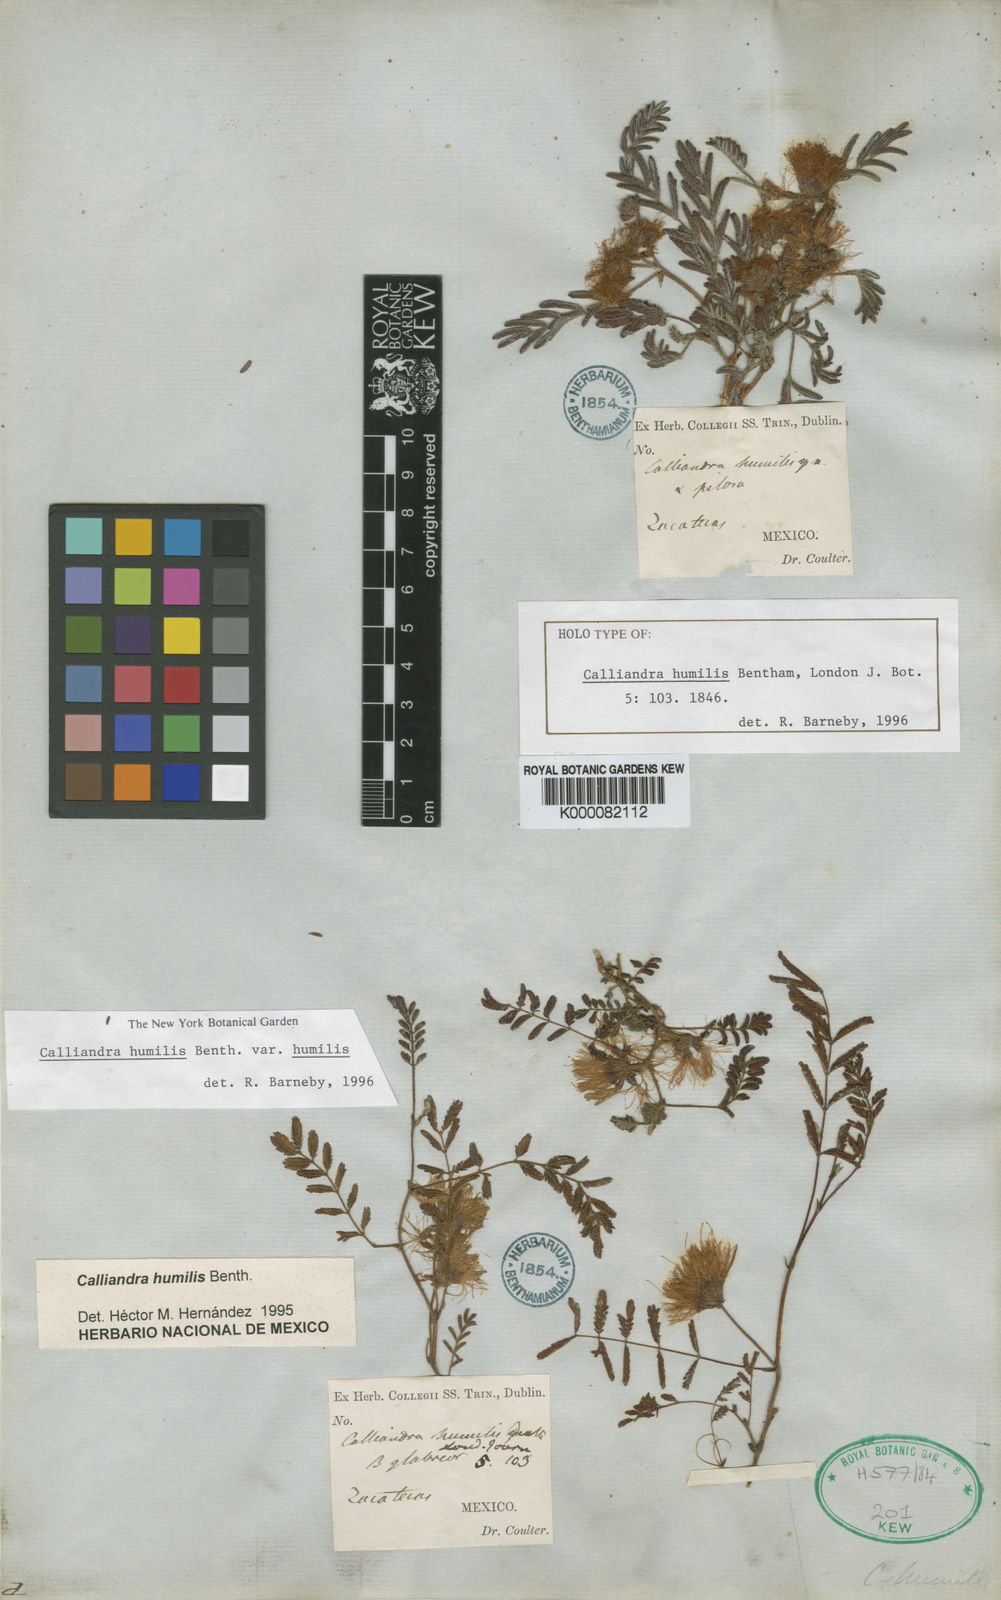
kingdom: Plantae
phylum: Tracheophyta
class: Magnoliopsida
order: Fabales
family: Fabaceae
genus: Calliandra
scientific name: Calliandra humilis
